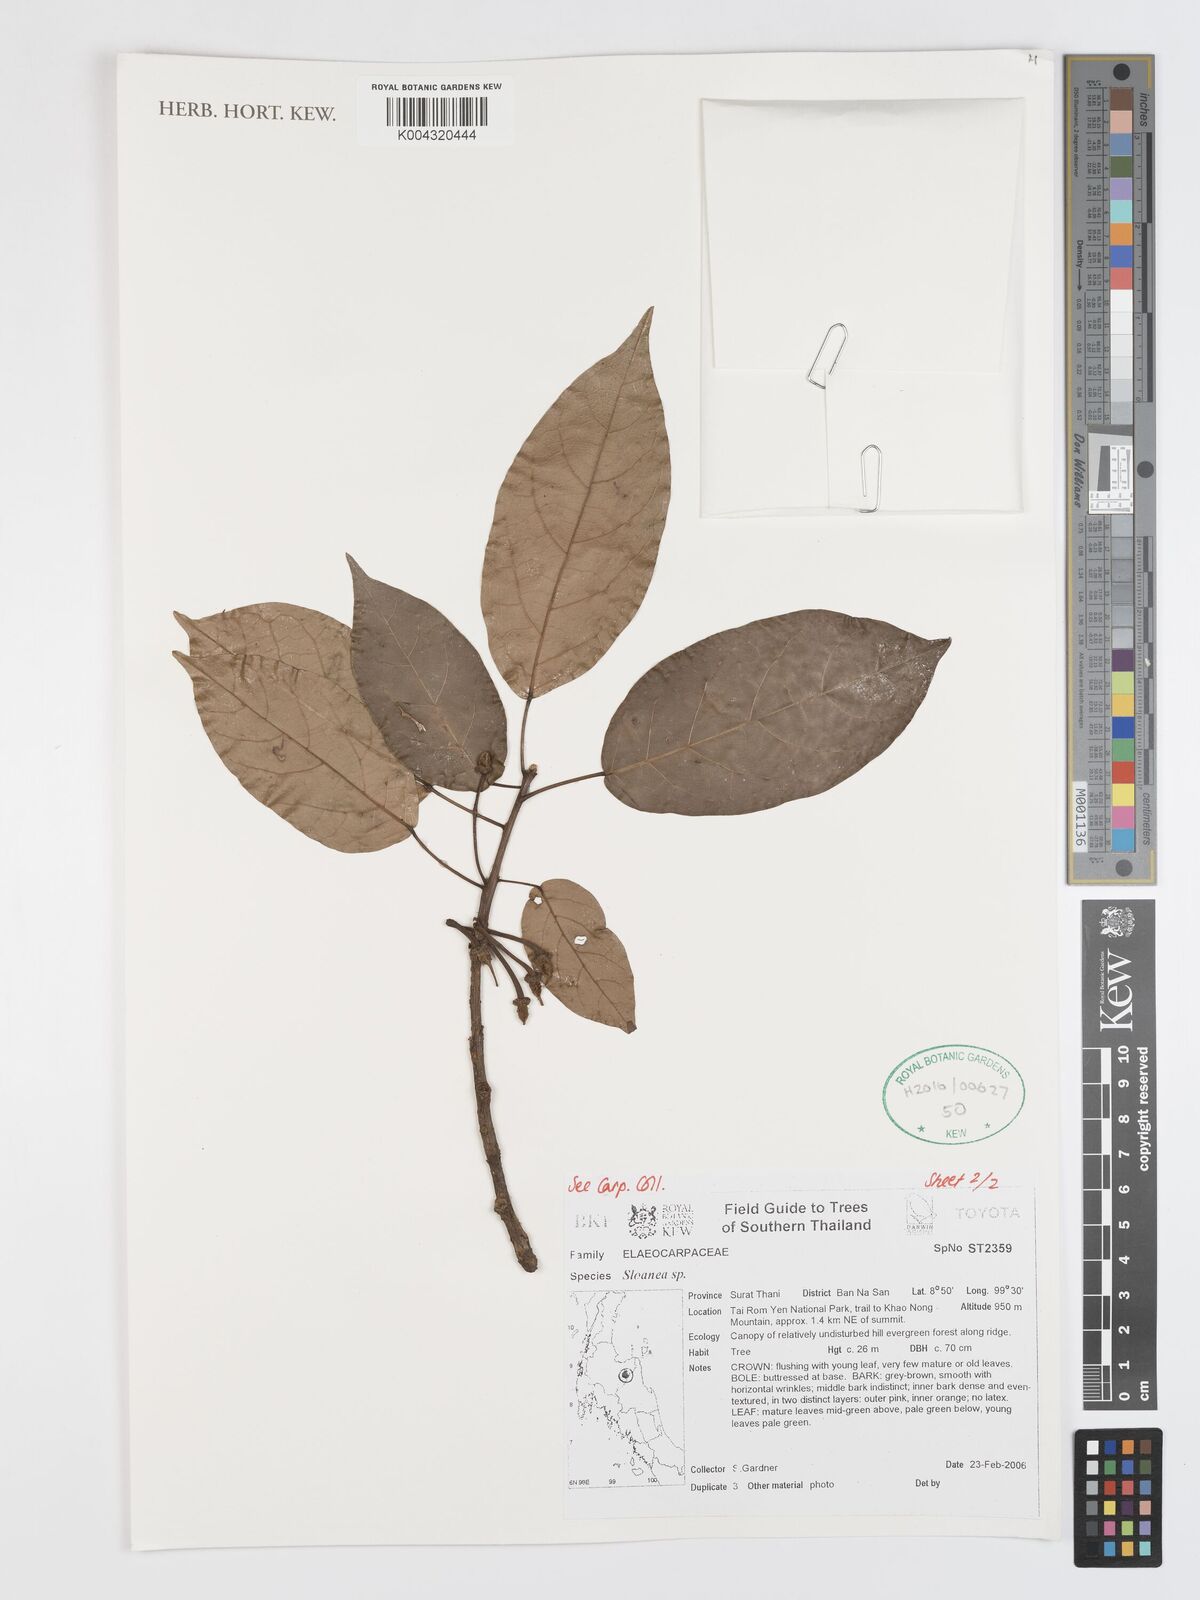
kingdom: Plantae
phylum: Tracheophyta
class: Magnoliopsida
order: Oxalidales
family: Elaeocarpaceae
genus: Sloanea
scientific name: Sloanea
